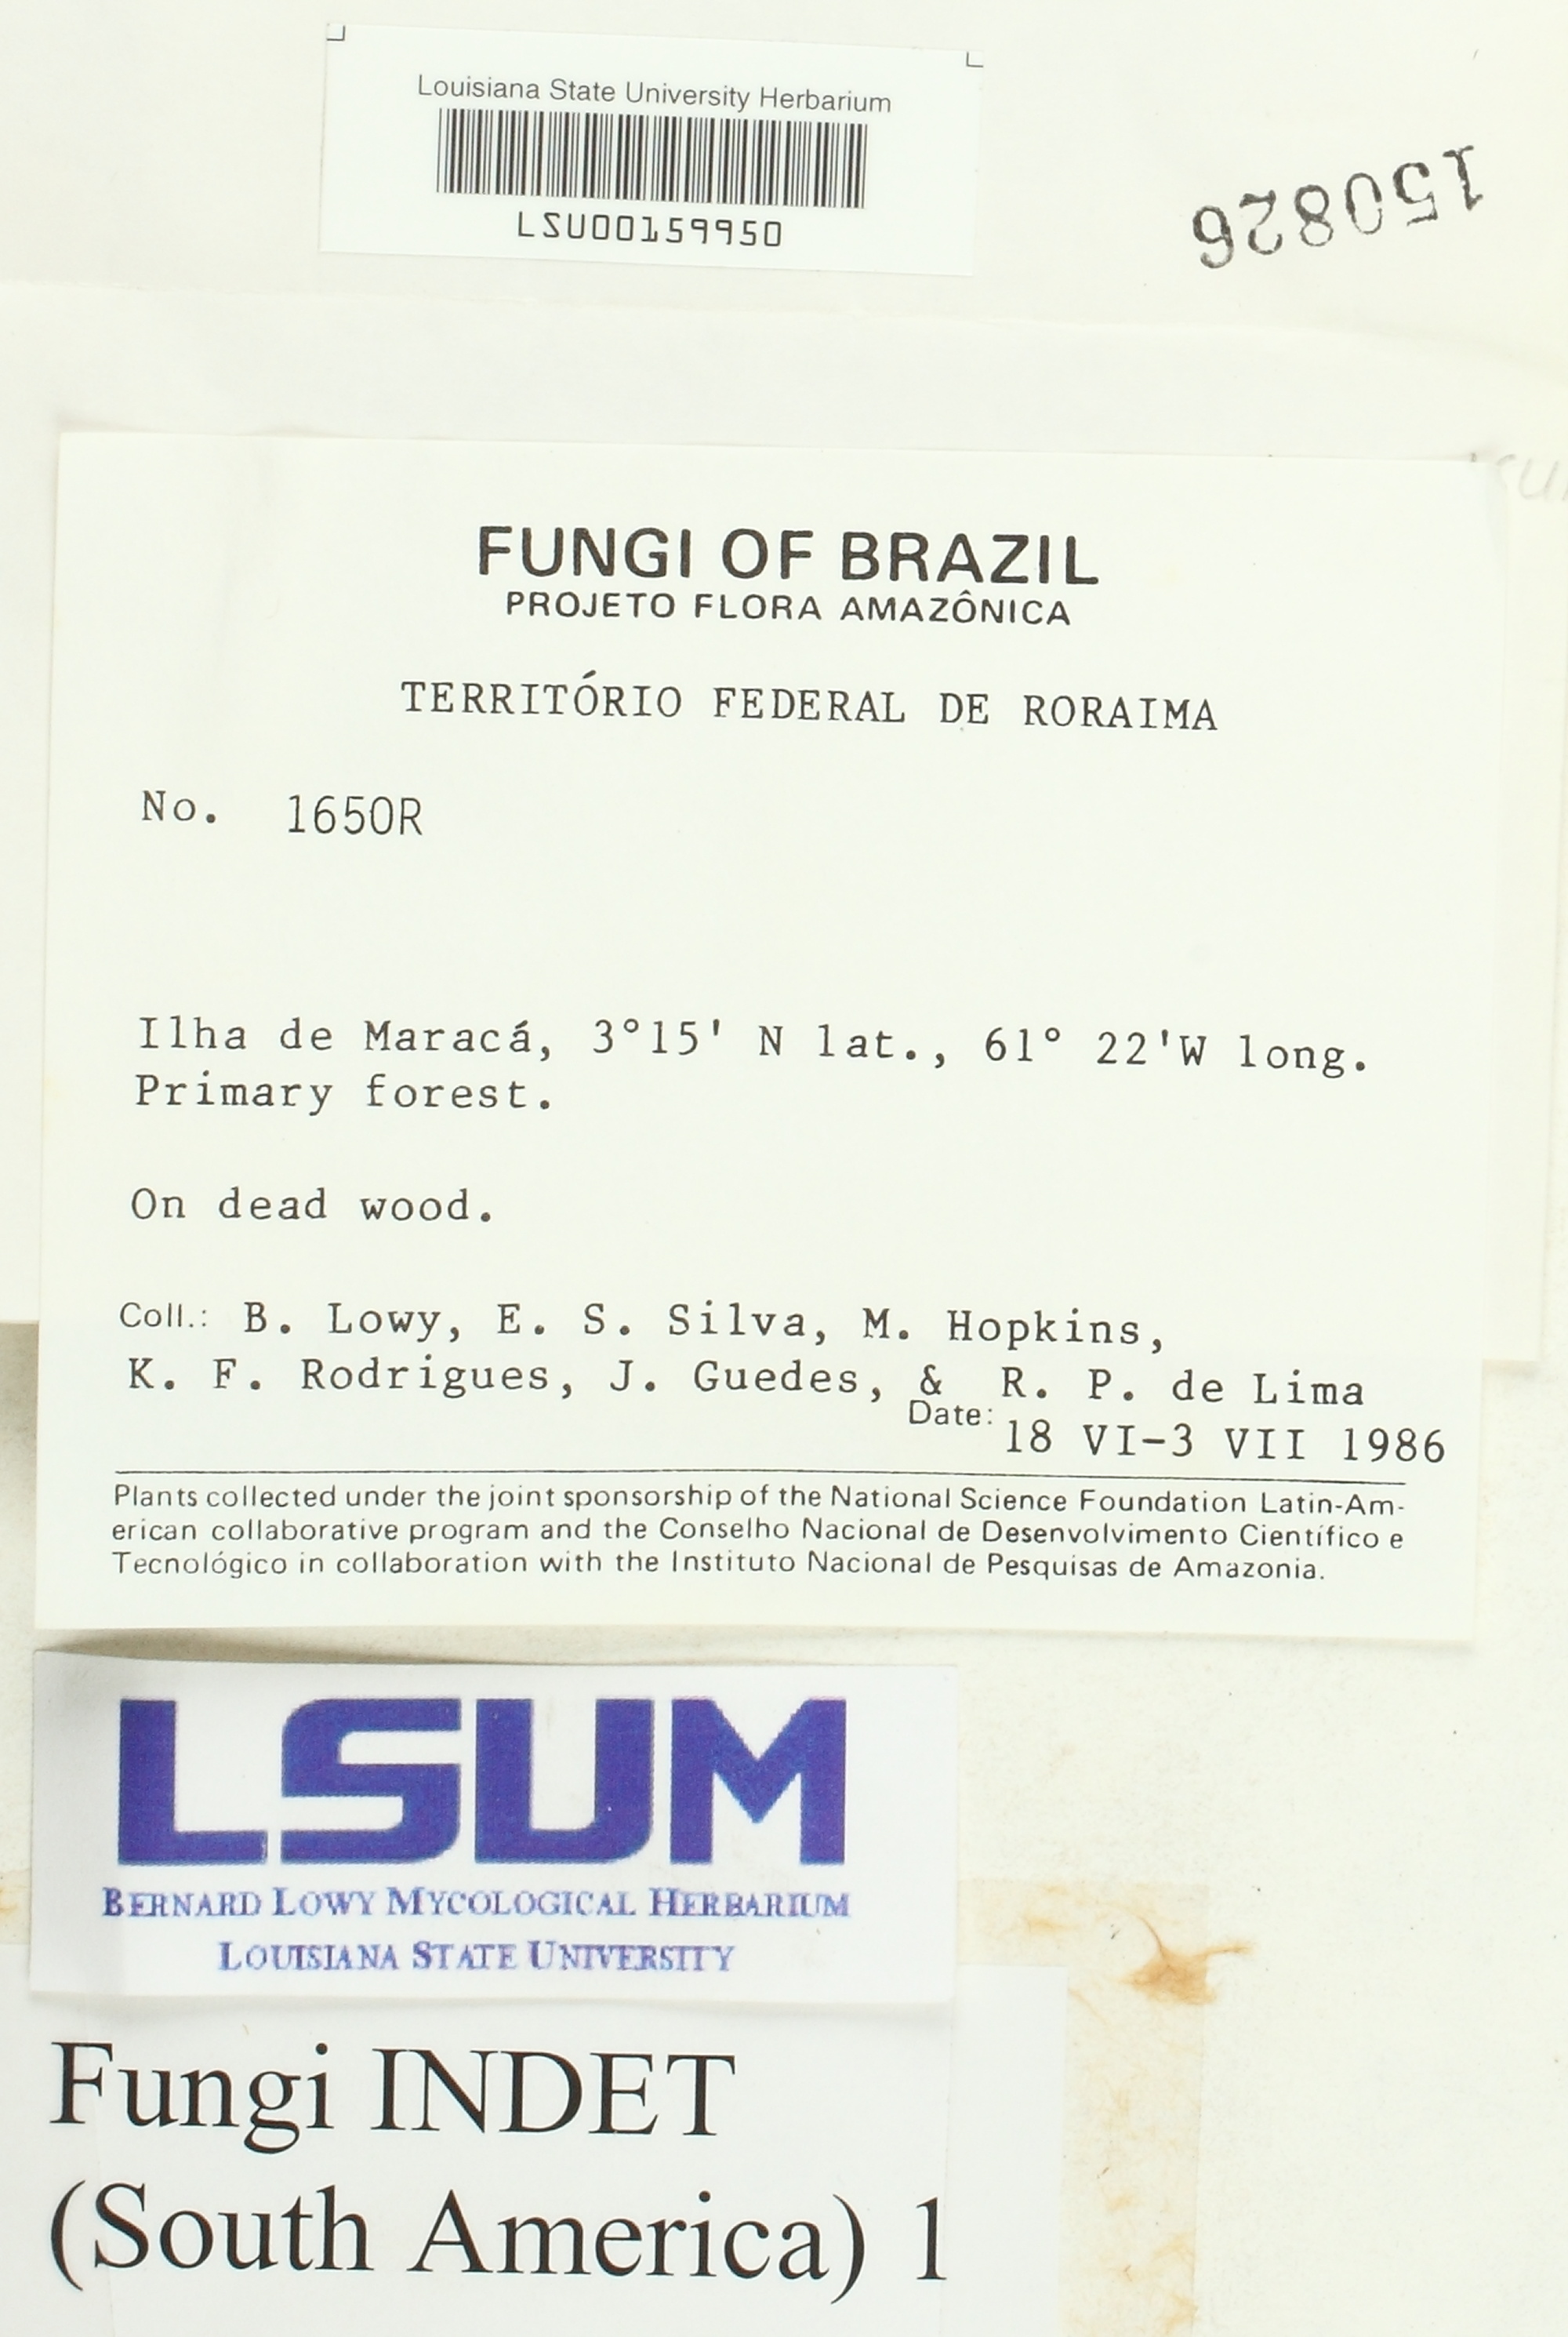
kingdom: Fungi
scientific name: Fungi
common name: Fungi
